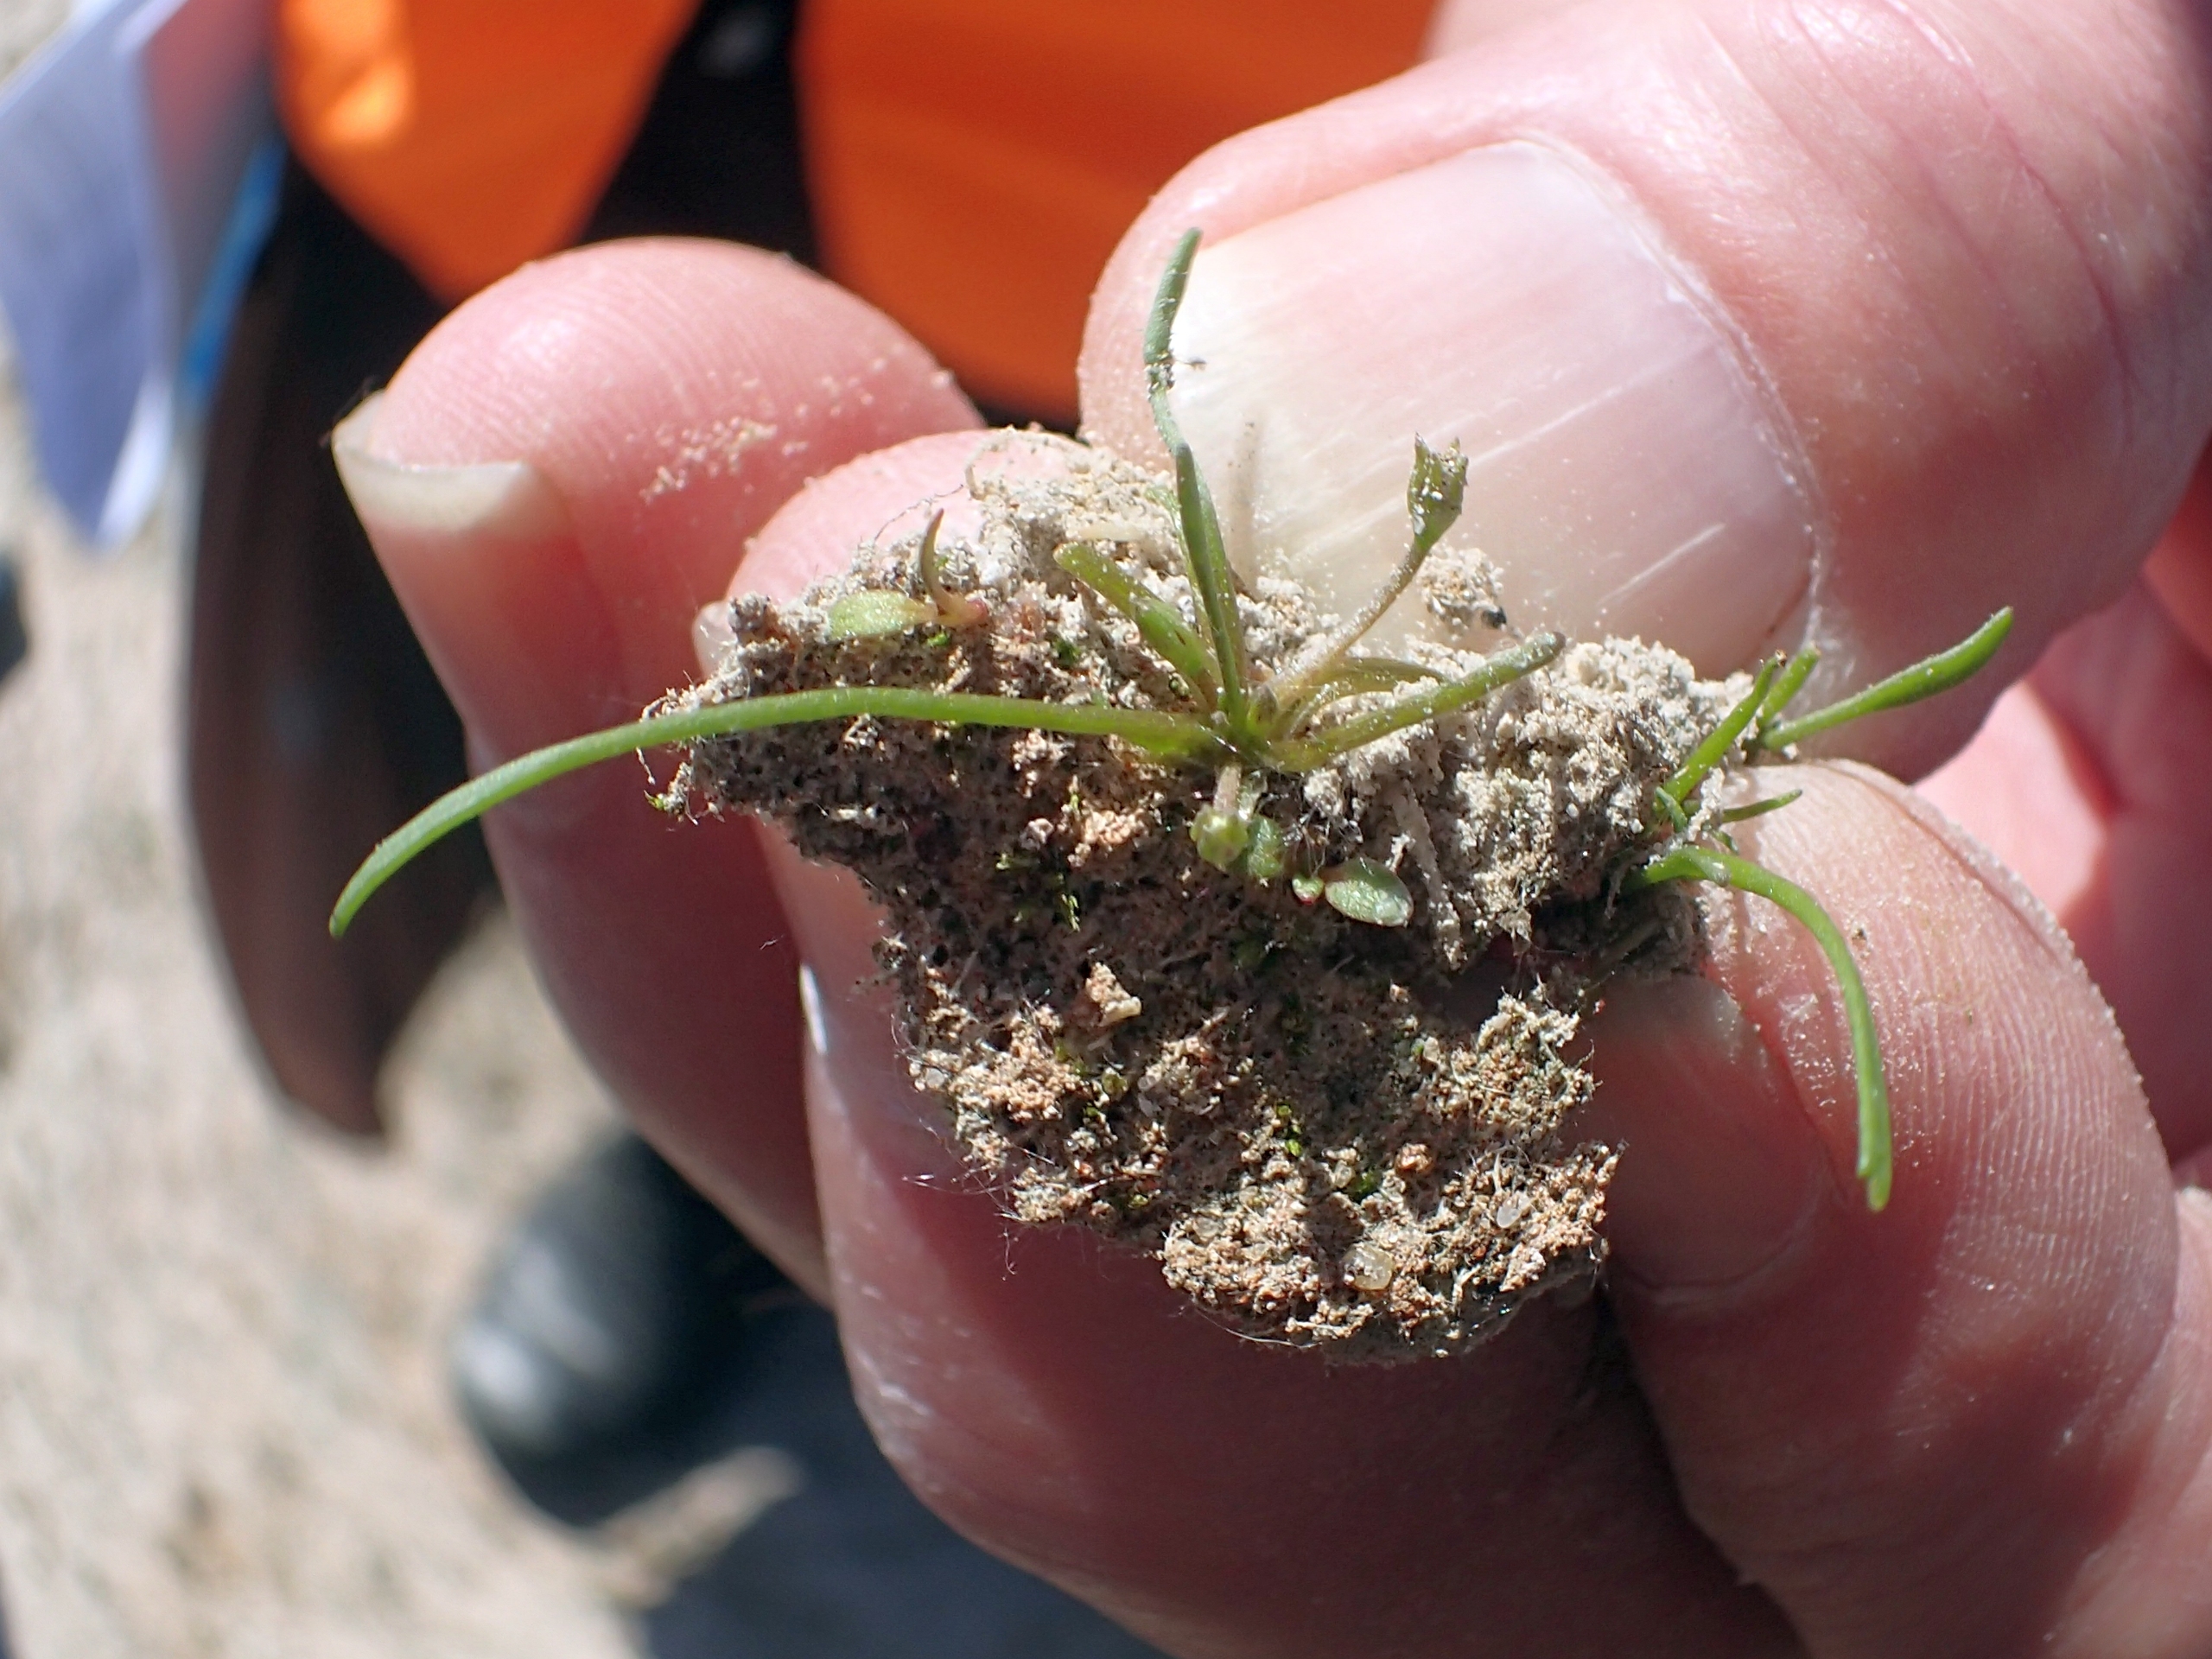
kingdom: Plantae
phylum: Tracheophyta
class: Magnoliopsida
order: Lamiales
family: Scrophulariaceae
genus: Limosella
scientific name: Limosella aquatica
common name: Dyndurt
